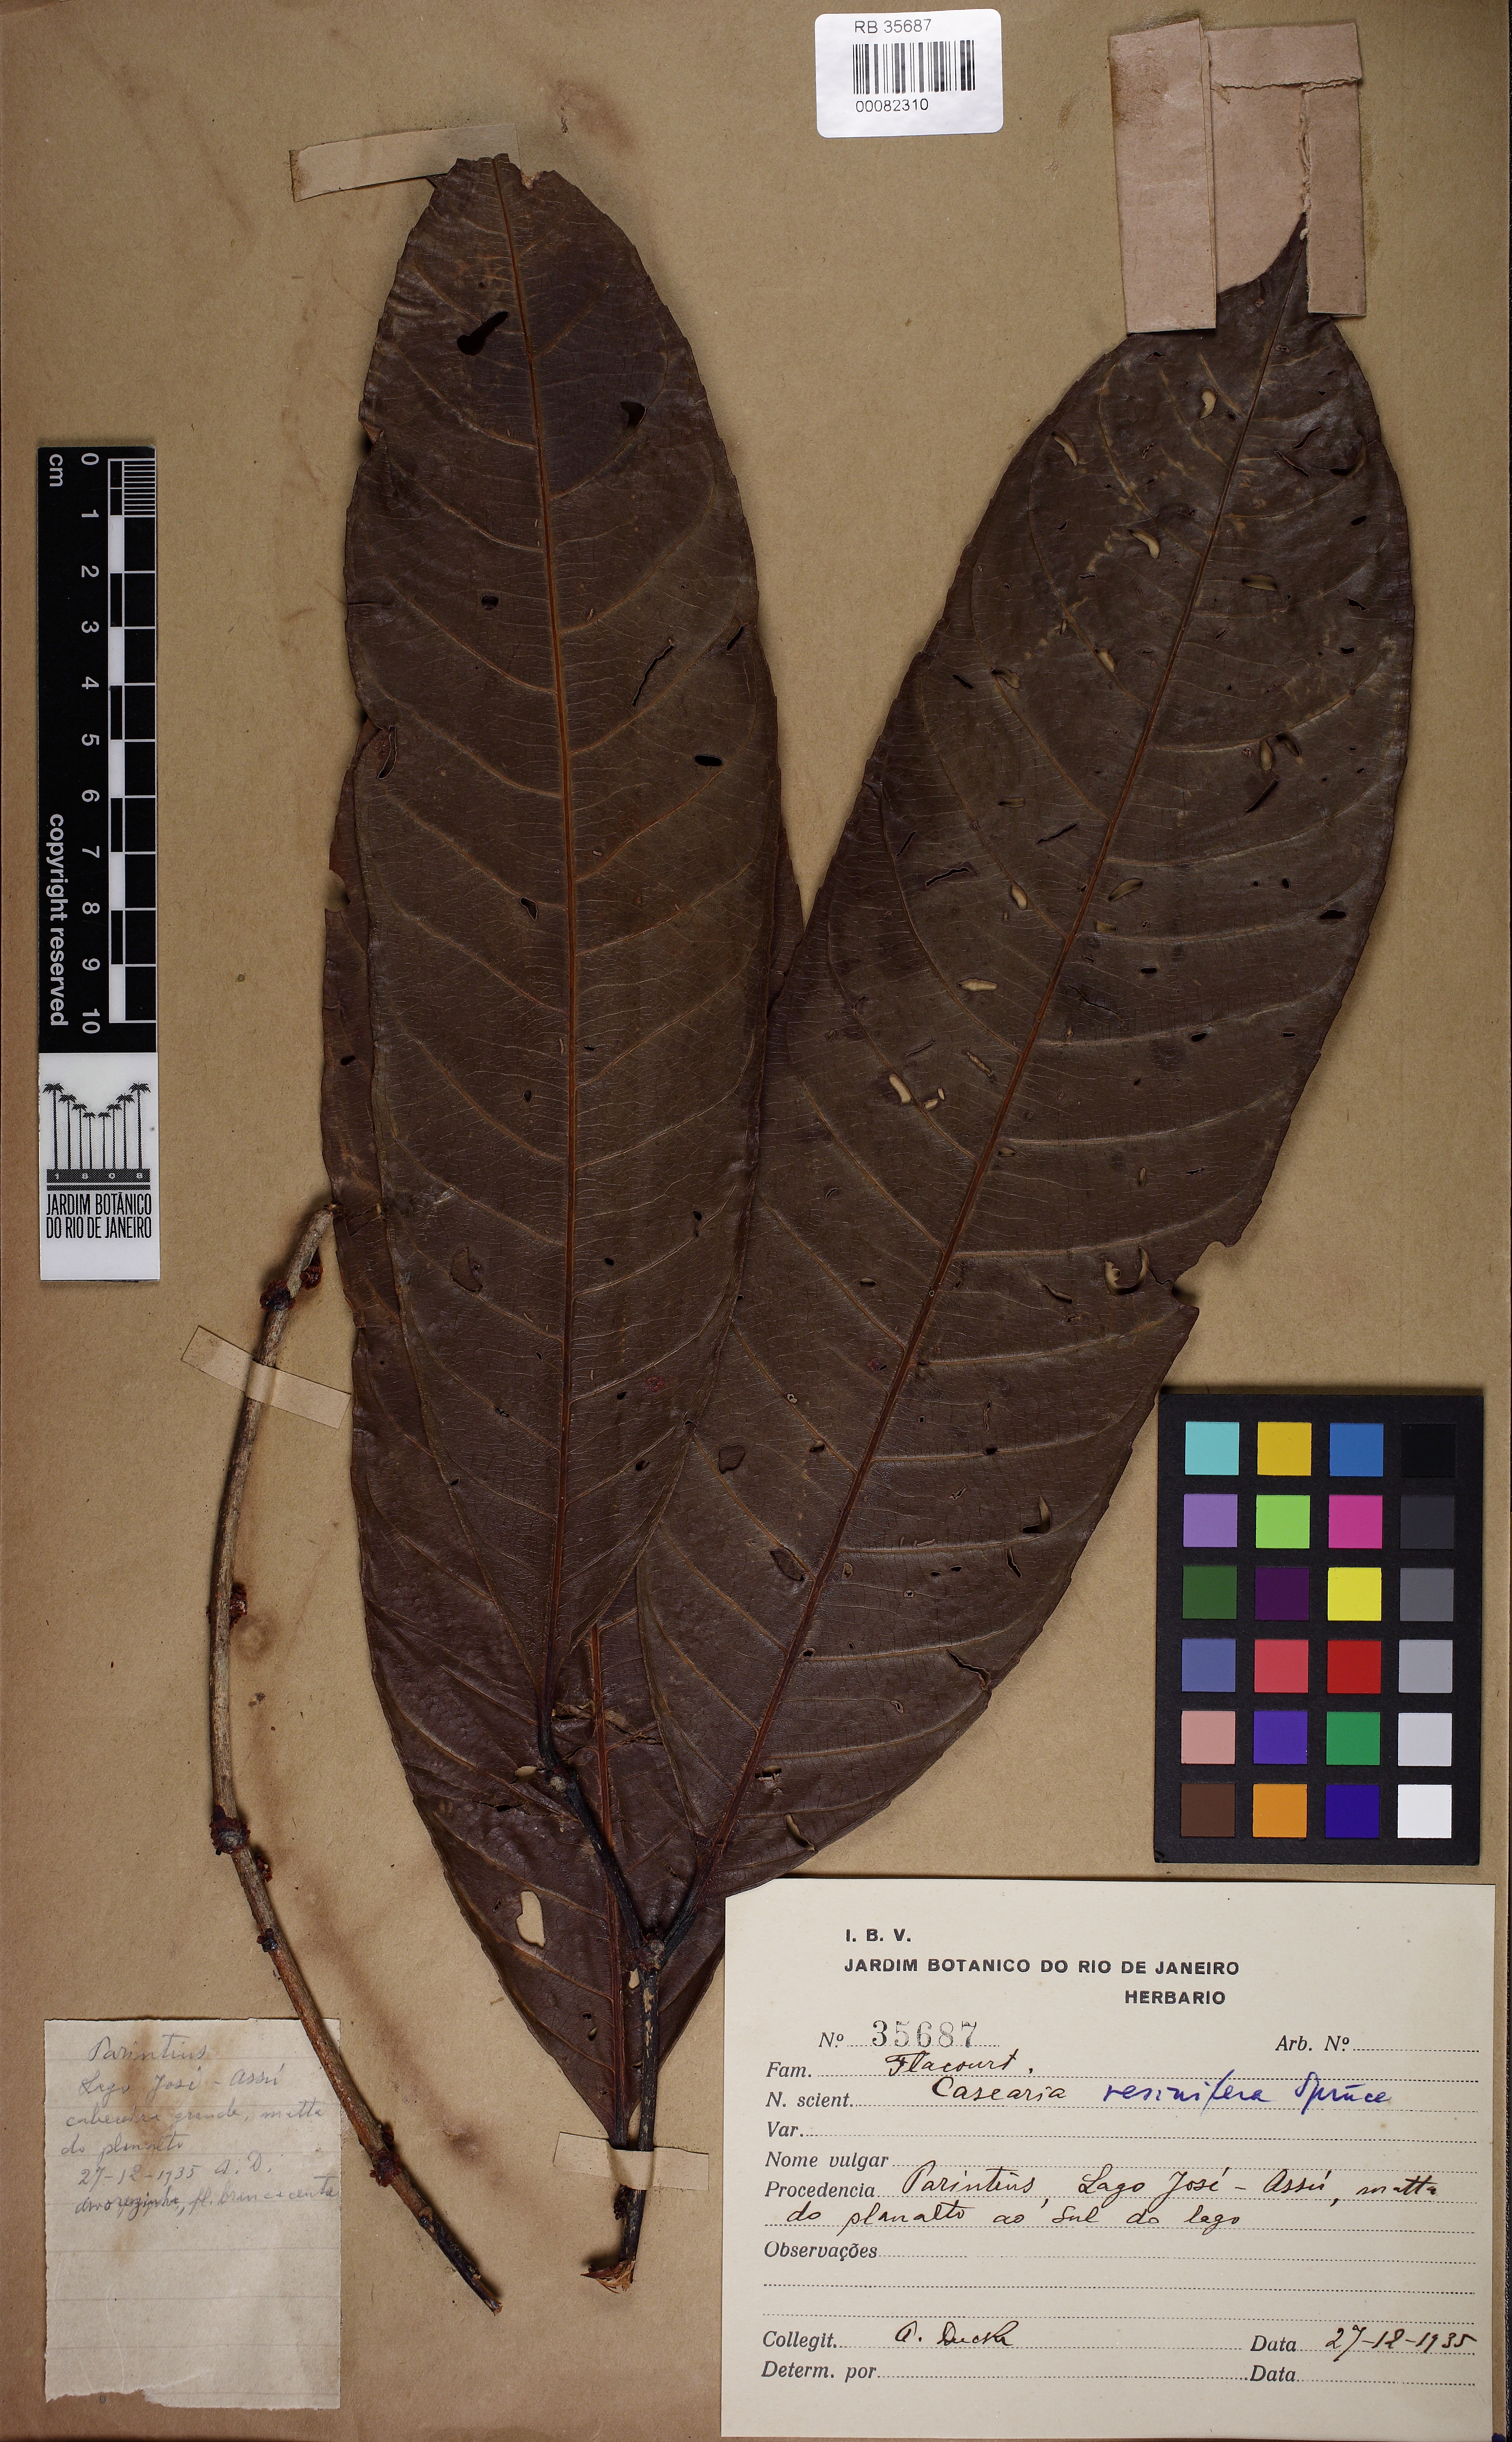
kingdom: Plantae
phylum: Tracheophyta
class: Magnoliopsida
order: Malpighiales
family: Salicaceae
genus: Casearia
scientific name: Casearia resinifera
